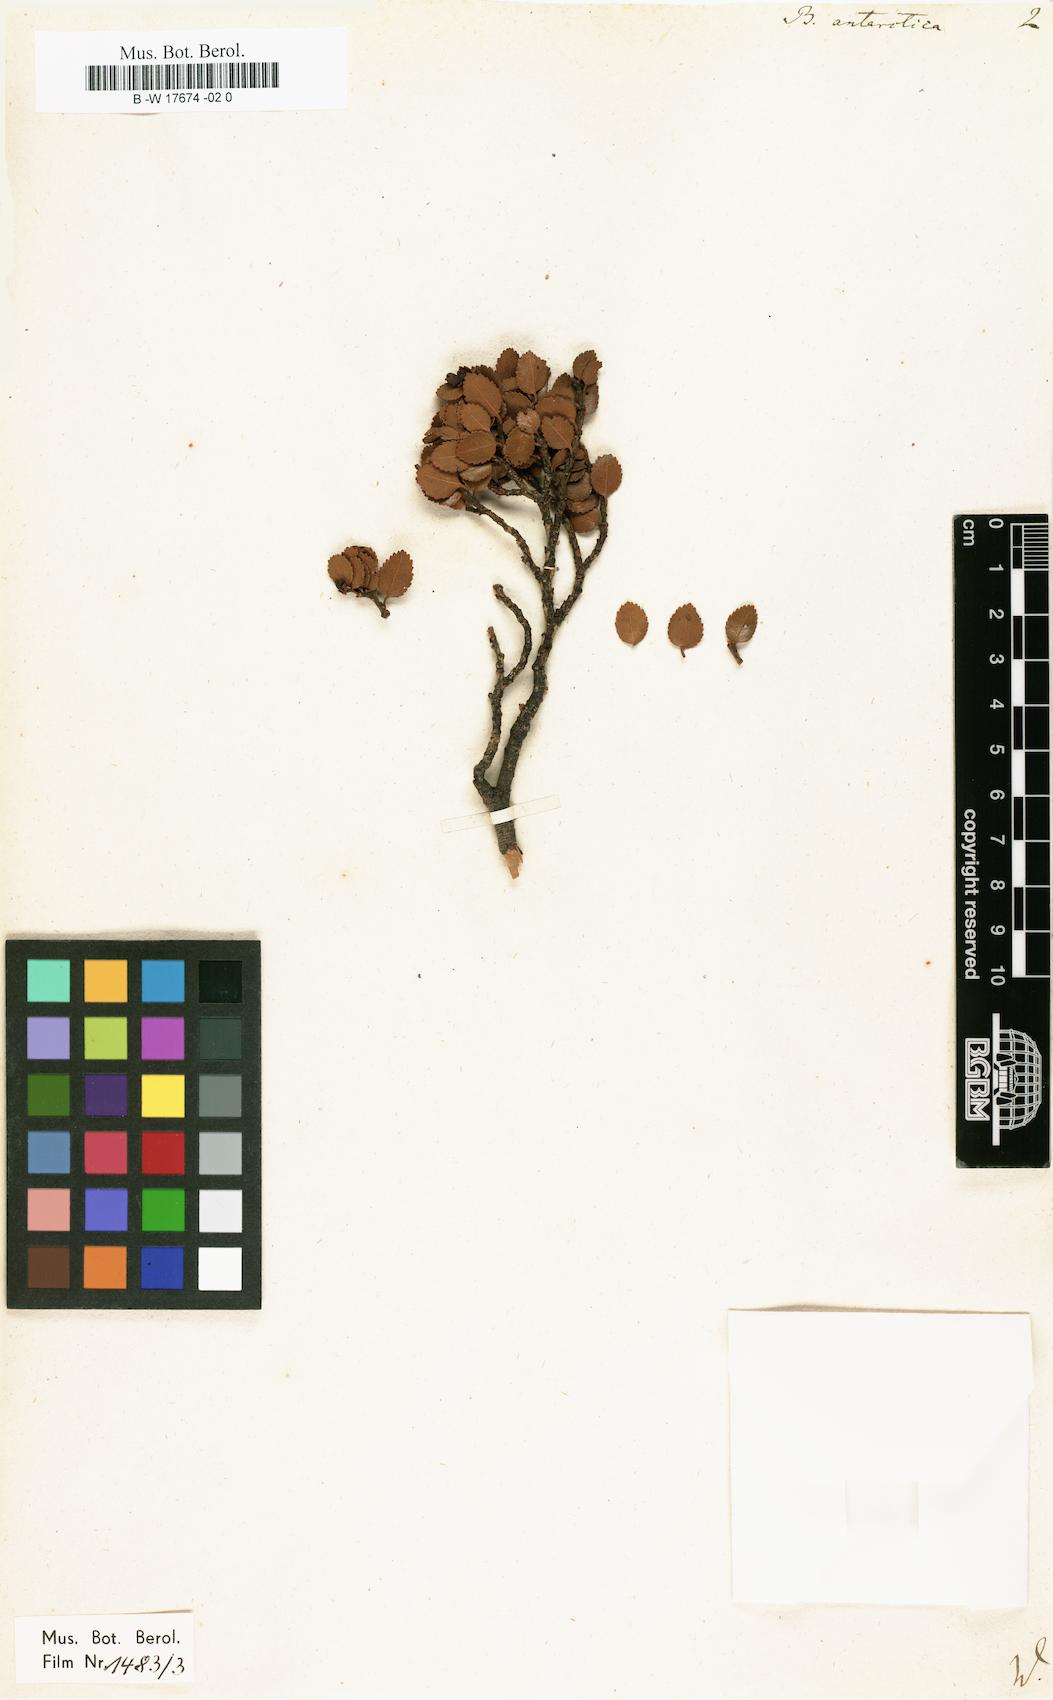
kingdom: Plantae
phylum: Tracheophyta
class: Magnoliopsida
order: Fagales
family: Nothofagaceae
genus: Nothofagus
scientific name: Nothofagus betuloides
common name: Magellan's beech
